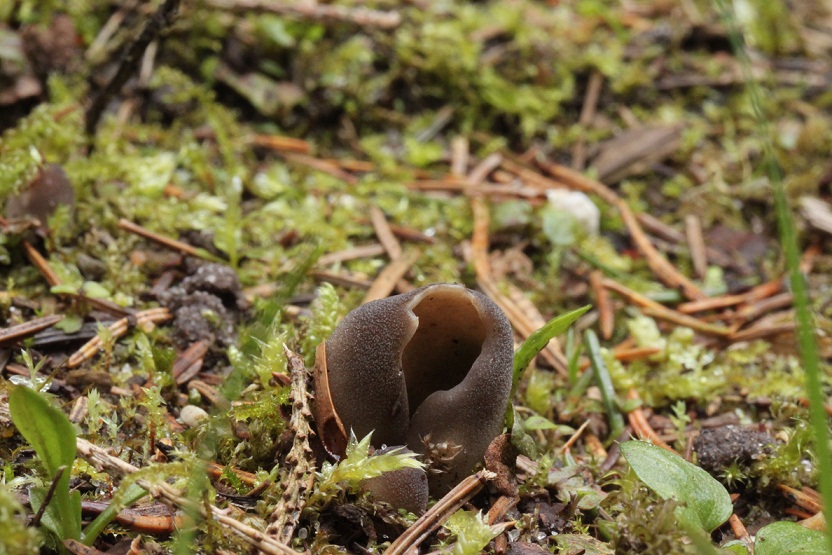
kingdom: Fungi
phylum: Ascomycota
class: Pezizomycetes
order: Pezizales
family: Helvellaceae
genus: Dissingia
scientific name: Dissingia confusa
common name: gran-foldhat
